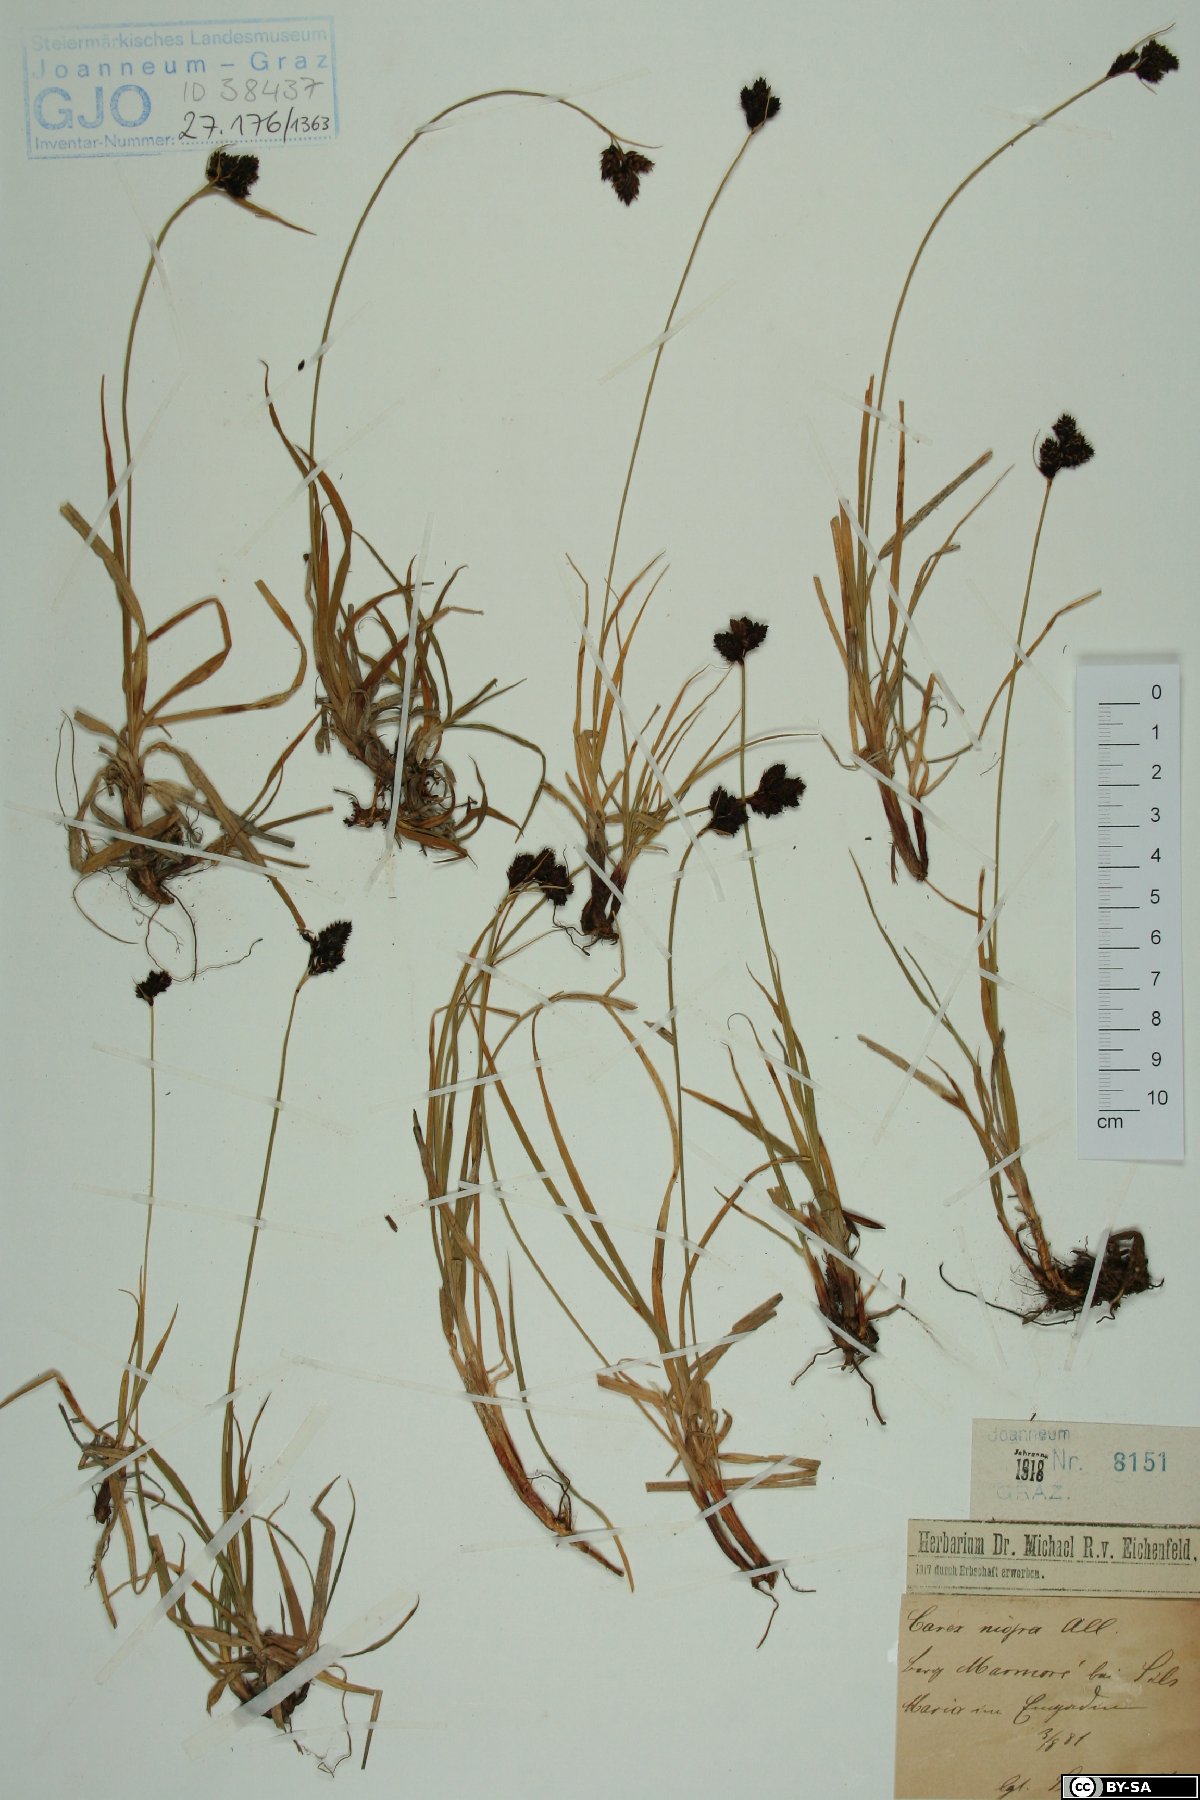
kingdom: Plantae
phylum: Tracheophyta
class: Liliopsida
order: Poales
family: Cyperaceae
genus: Carex
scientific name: Carex nigra
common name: Common sedge
